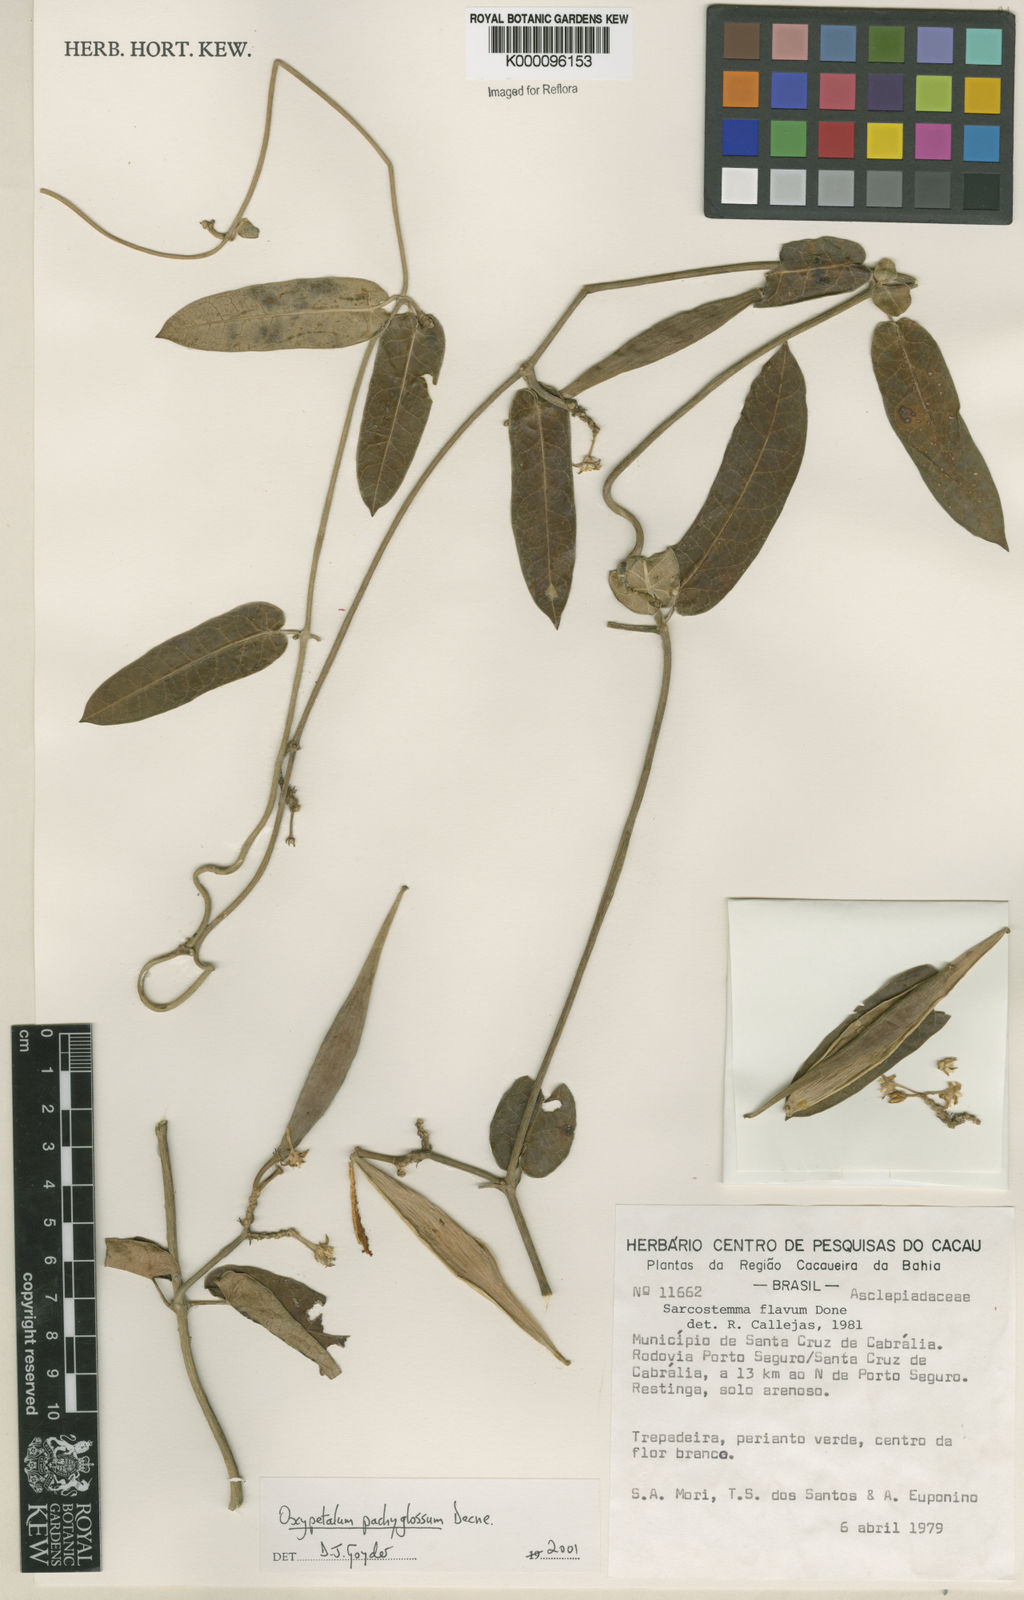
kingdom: Plantae
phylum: Tracheophyta
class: Magnoliopsida
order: Gentianales
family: Apocynaceae
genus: Oxypetalum
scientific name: Oxypetalum pachyglossum
